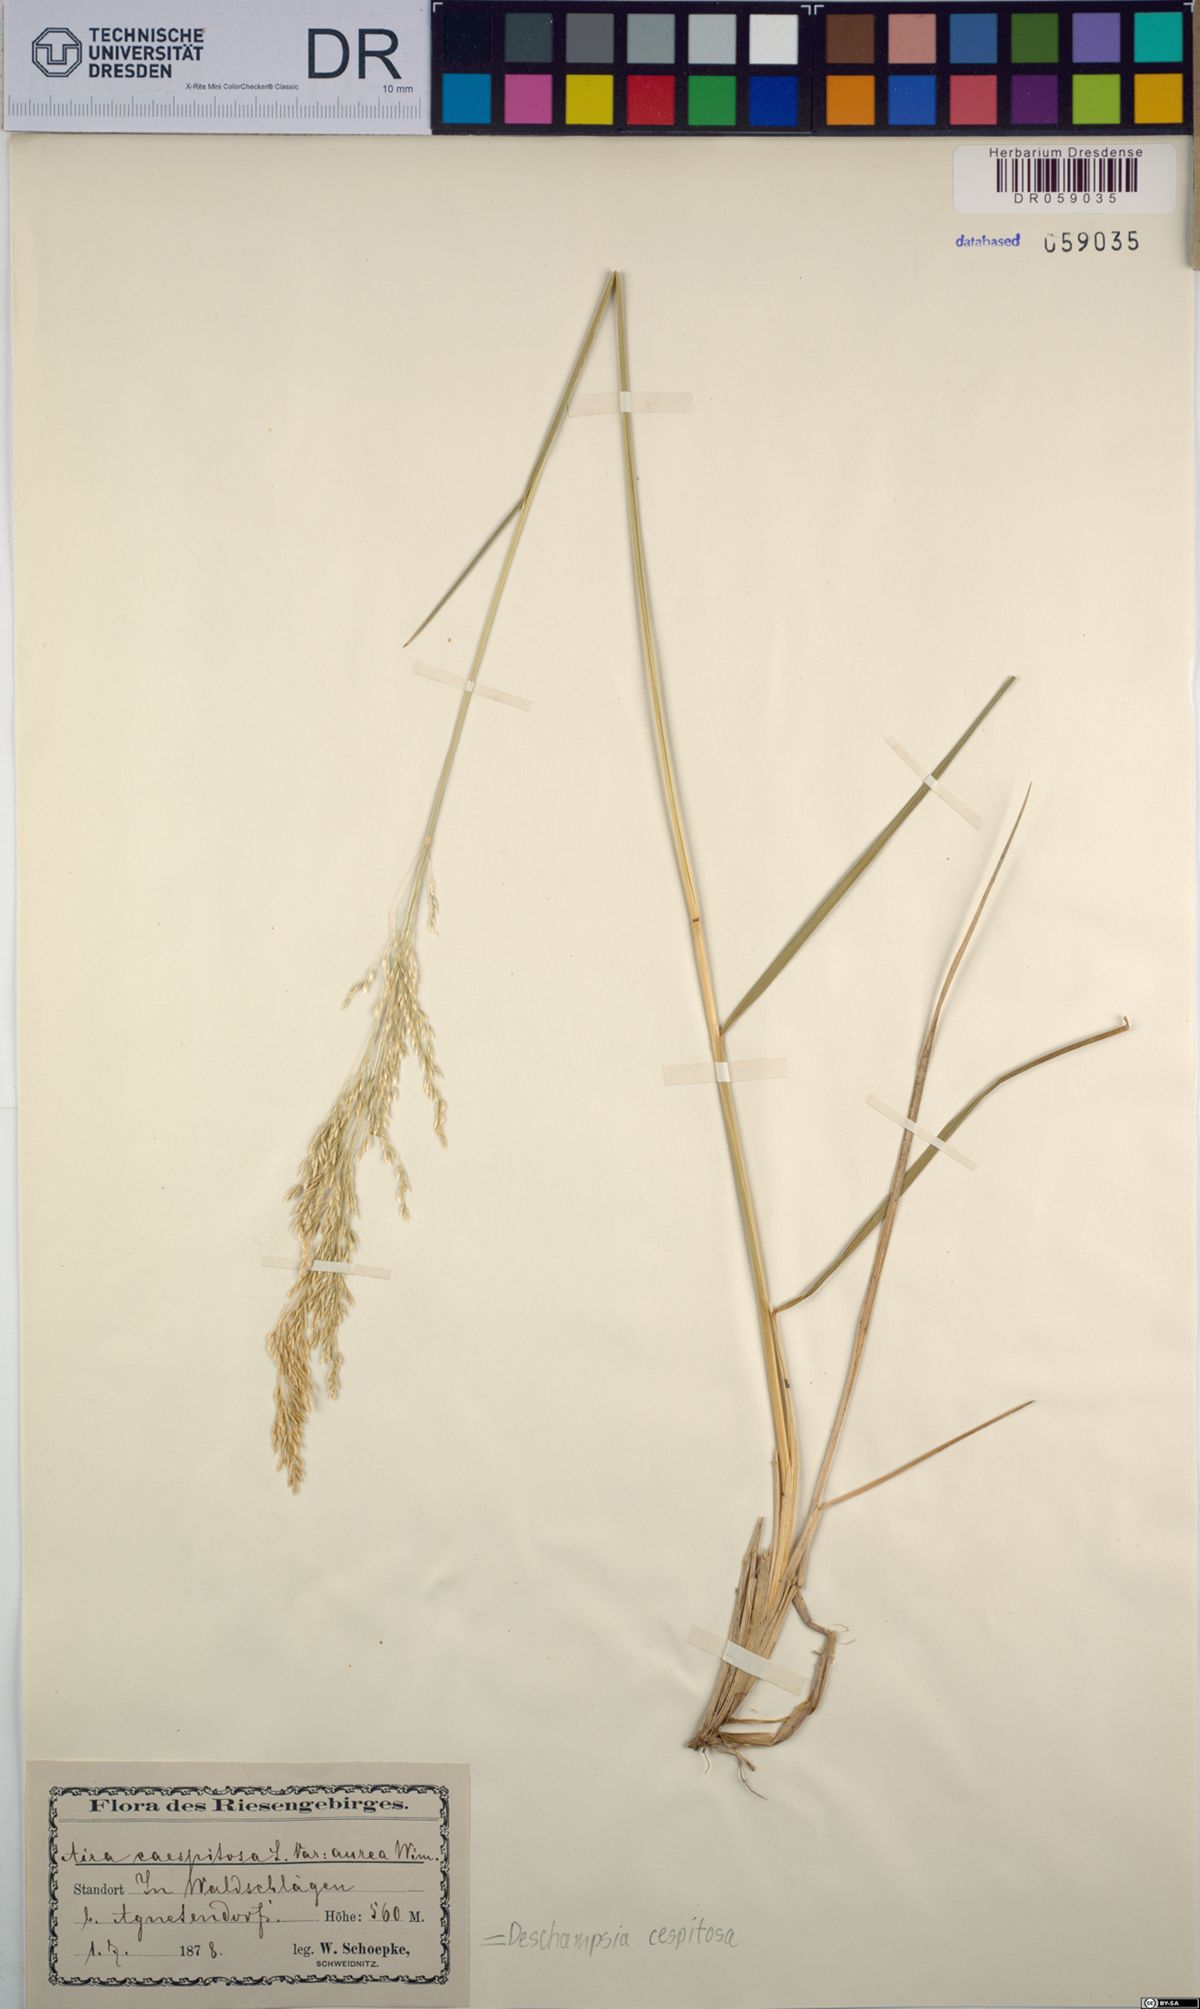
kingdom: Plantae
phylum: Tracheophyta
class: Liliopsida
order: Poales
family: Poaceae
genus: Deschampsia
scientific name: Deschampsia cespitosa
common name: Tufted hair-grass
